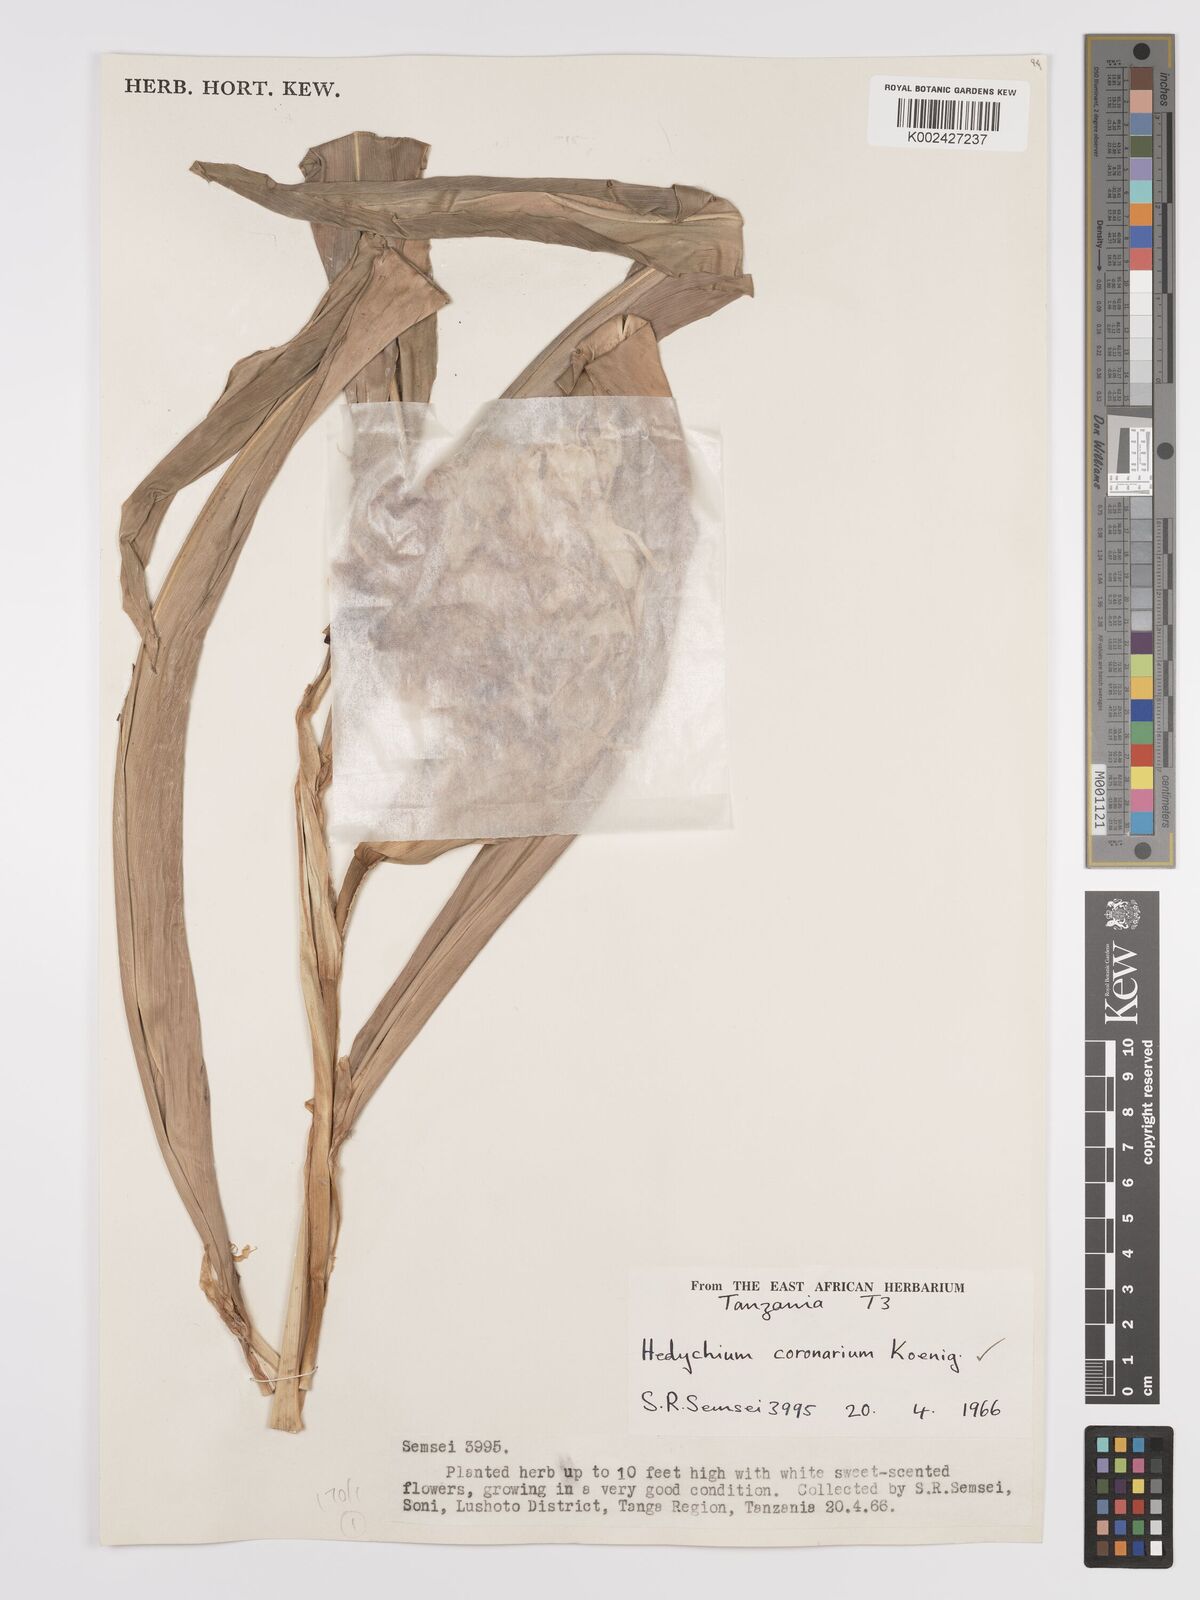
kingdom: Plantae
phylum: Tracheophyta
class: Liliopsida
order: Zingiberales
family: Zingiberaceae
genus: Hedychium
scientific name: Hedychium coronarium
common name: White garland-lily
